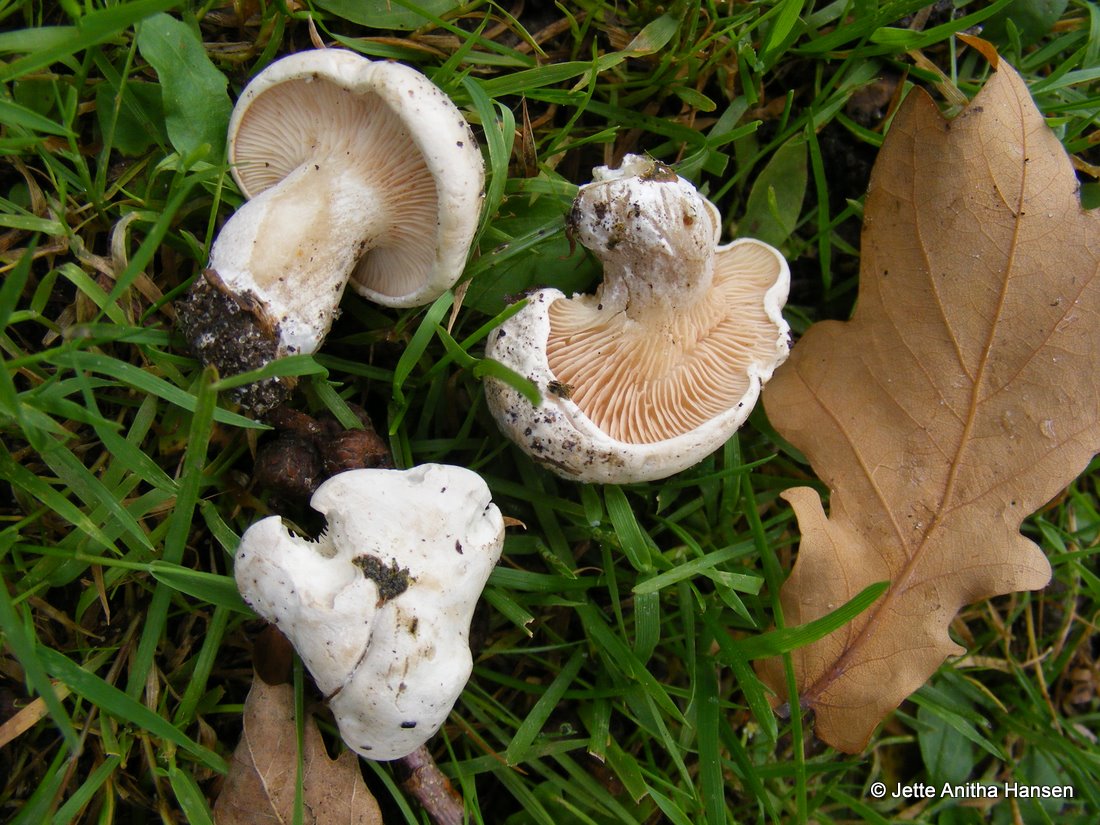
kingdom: Fungi
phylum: Basidiomycota
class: Agaricomycetes
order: Agaricales
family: Entolomataceae
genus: Clitopilus
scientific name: Clitopilus prunulus
